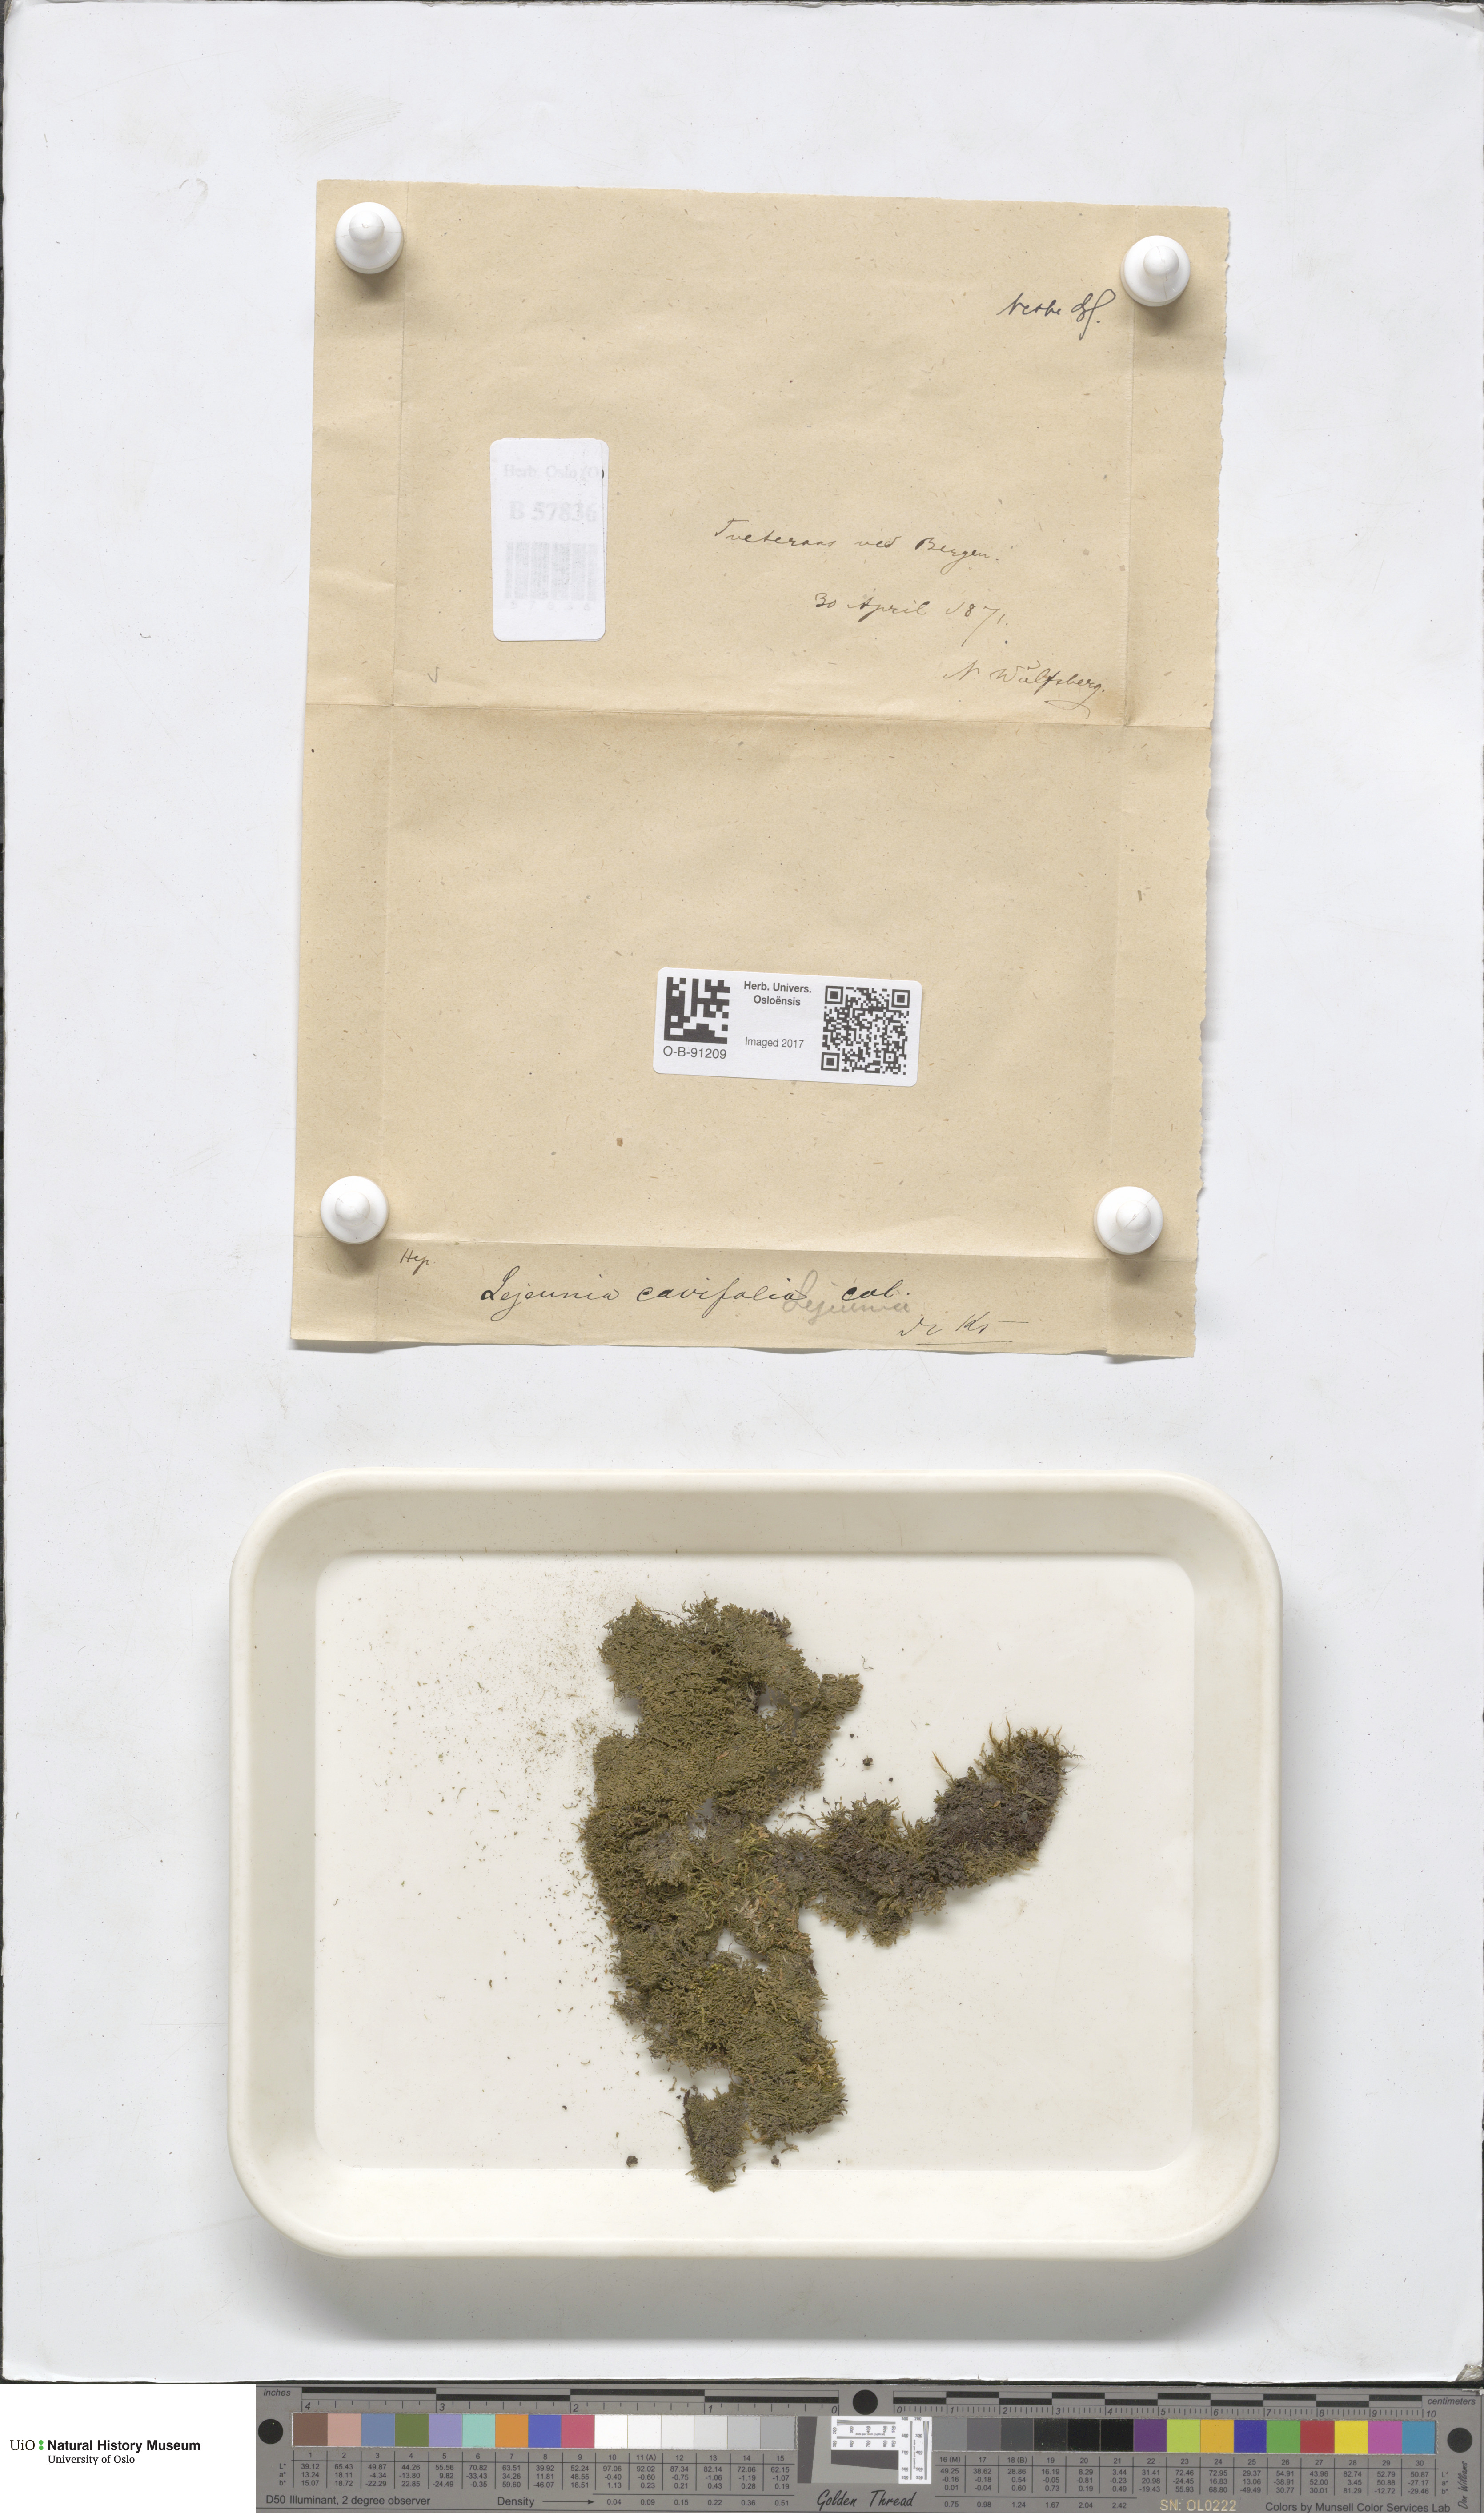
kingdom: Plantae
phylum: Marchantiophyta
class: Jungermanniopsida
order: Porellales
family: Lejeuneaceae
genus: Lejeunea
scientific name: Lejeunea cavifolia
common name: Least pouncewort
